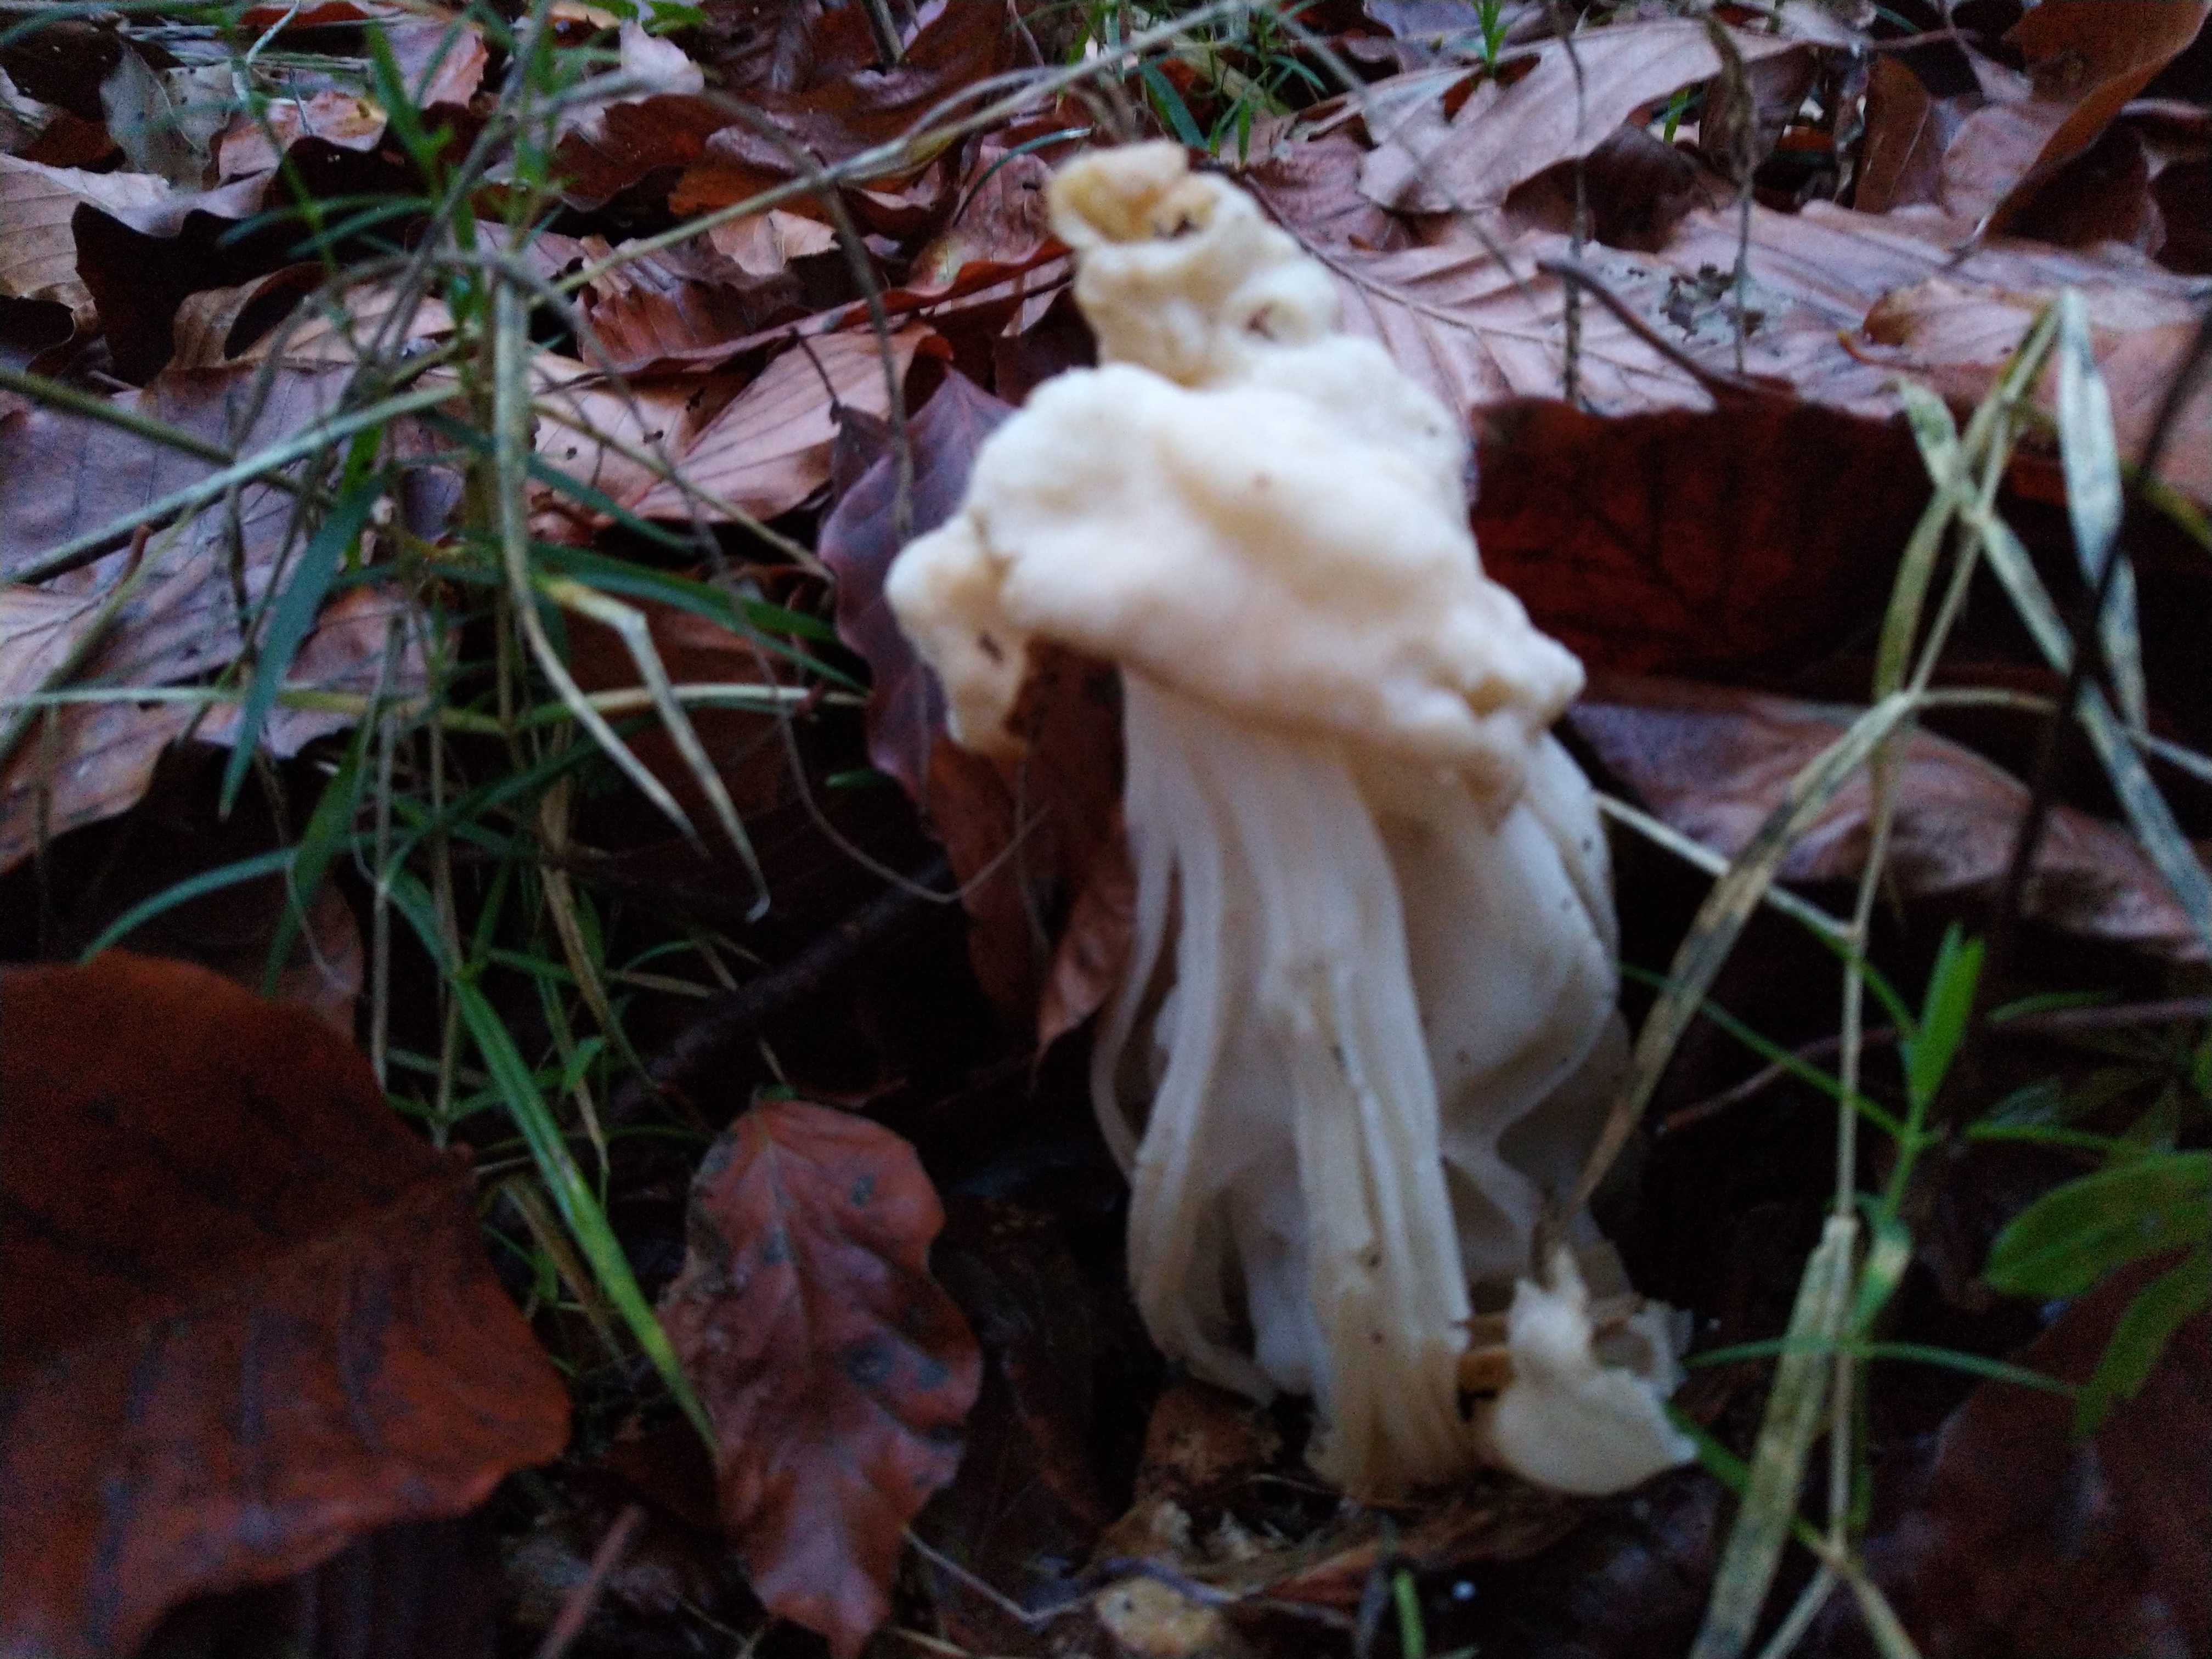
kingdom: Fungi
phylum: Ascomycota
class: Pezizomycetes
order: Pezizales
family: Helvellaceae
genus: Helvella
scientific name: Helvella crispa
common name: kruset foldhat
